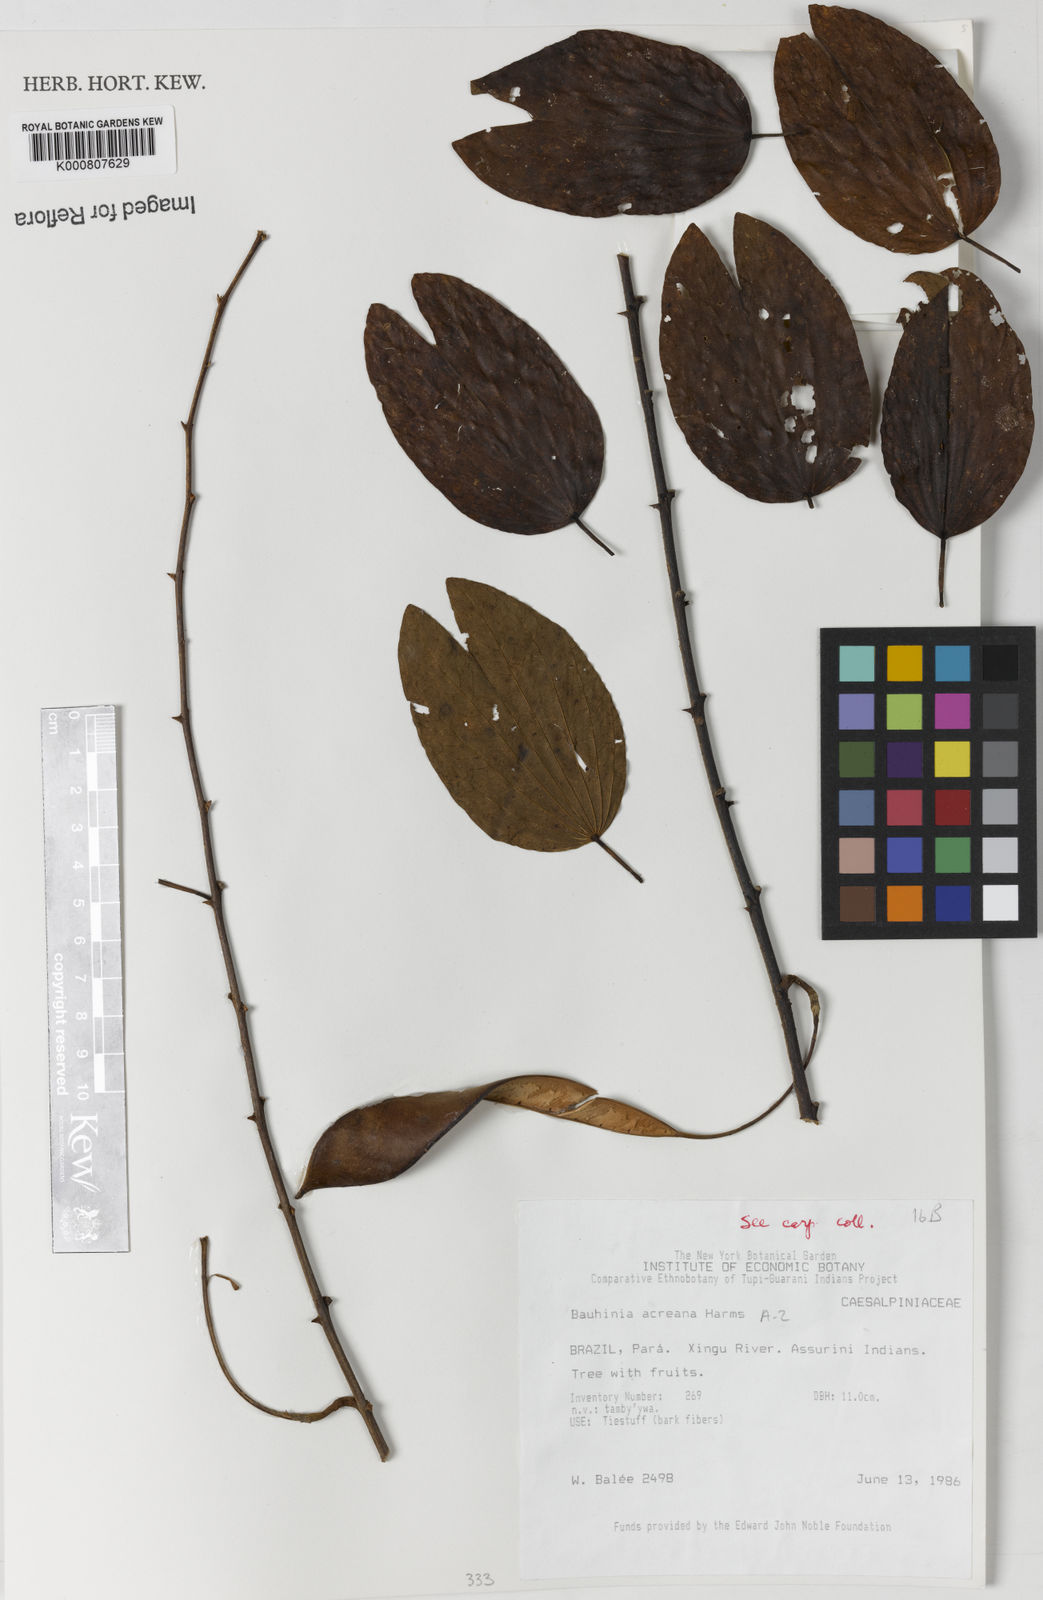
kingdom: Plantae
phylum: Tracheophyta
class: Magnoliopsida
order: Fabales
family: Fabaceae
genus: Bauhinia
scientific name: Bauhinia acreana
